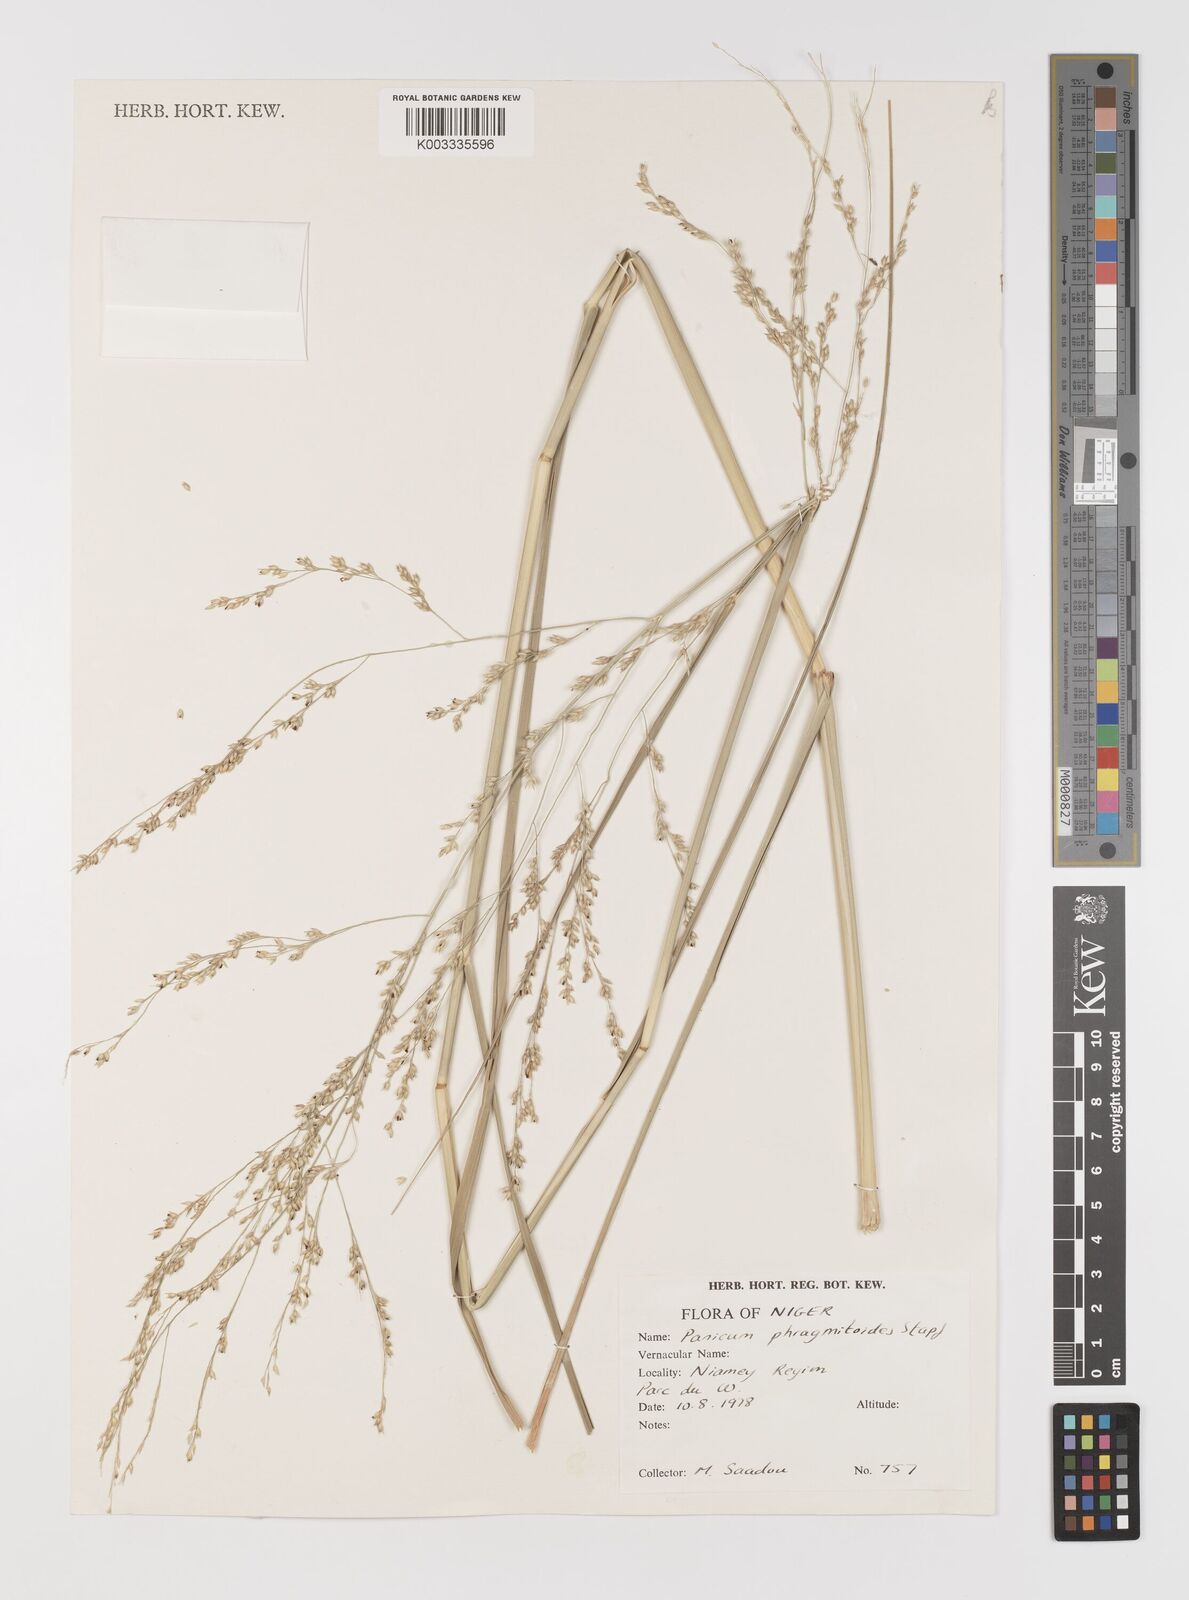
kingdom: Plantae
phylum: Tracheophyta
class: Liliopsida
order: Poales
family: Poaceae
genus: Panicum
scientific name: Panicum phragmitoides
